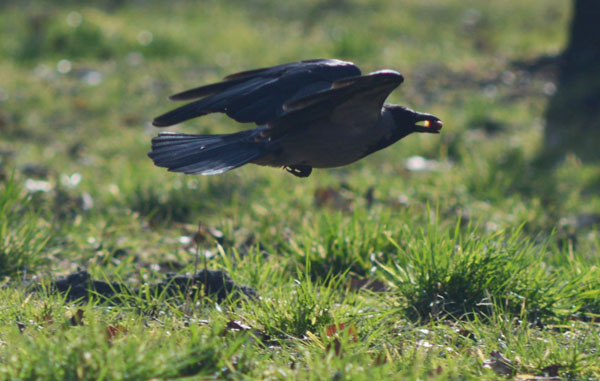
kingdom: Animalia
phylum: Chordata
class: Aves
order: Passeriformes
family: Corvidae
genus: Corvus
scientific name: Corvus cornix
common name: Hooded crow
